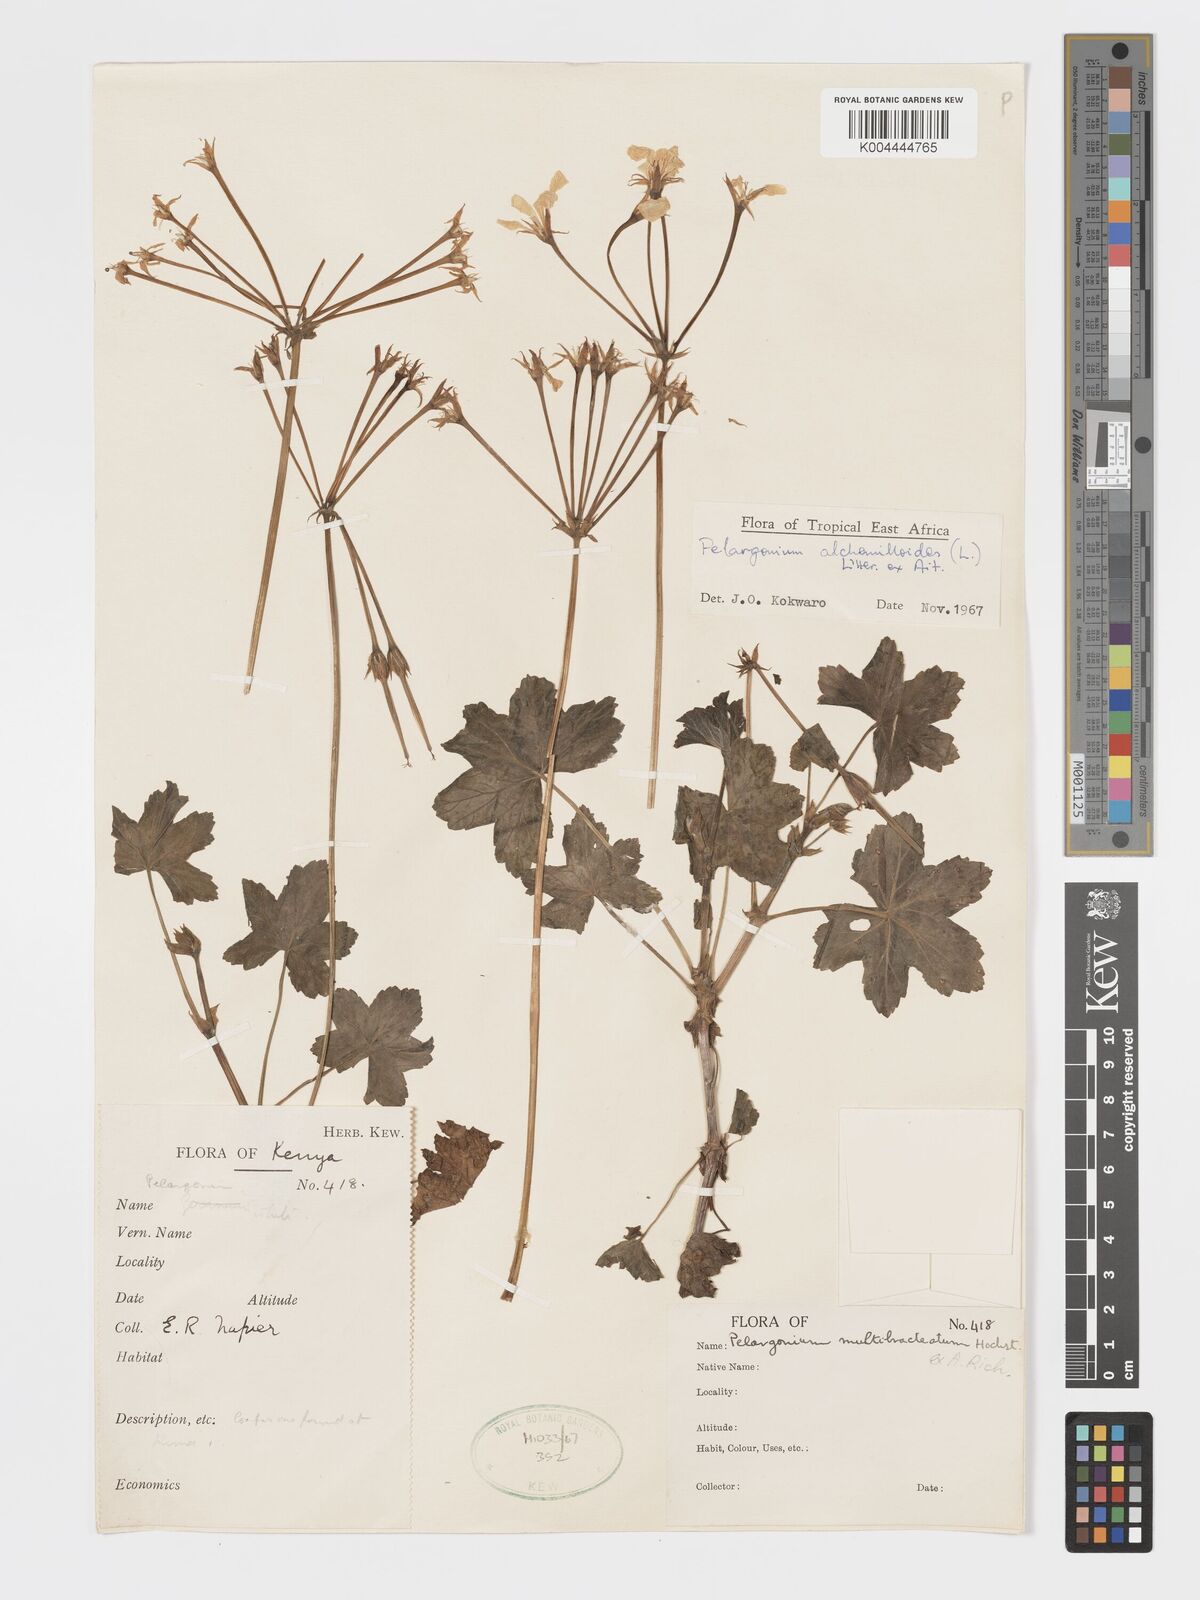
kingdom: Plantae
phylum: Tracheophyta
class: Magnoliopsida
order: Geraniales
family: Geraniaceae
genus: Pelargonium
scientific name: Pelargonium alchemilloides
